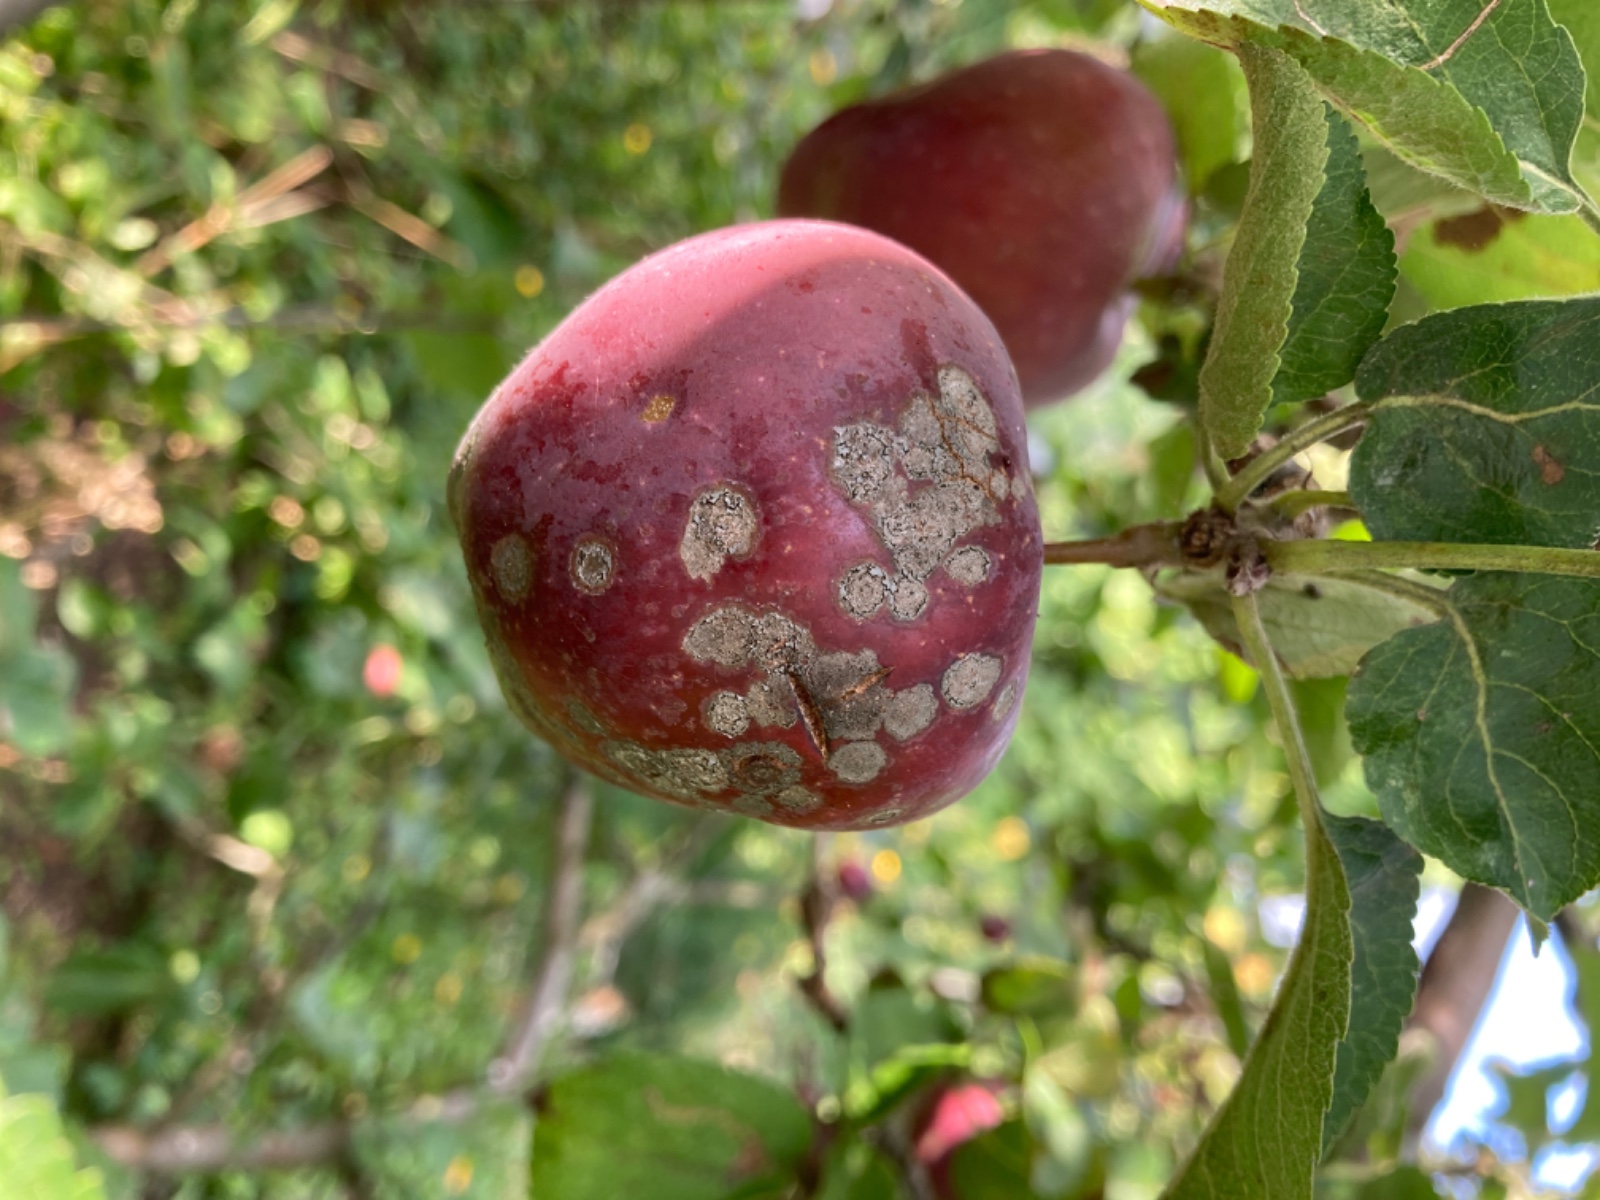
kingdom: Fungi
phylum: Ascomycota
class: Dothideomycetes
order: Venturiales
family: Venturiaceae
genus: Venturia
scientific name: Venturia inaequalis
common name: Apple scab
